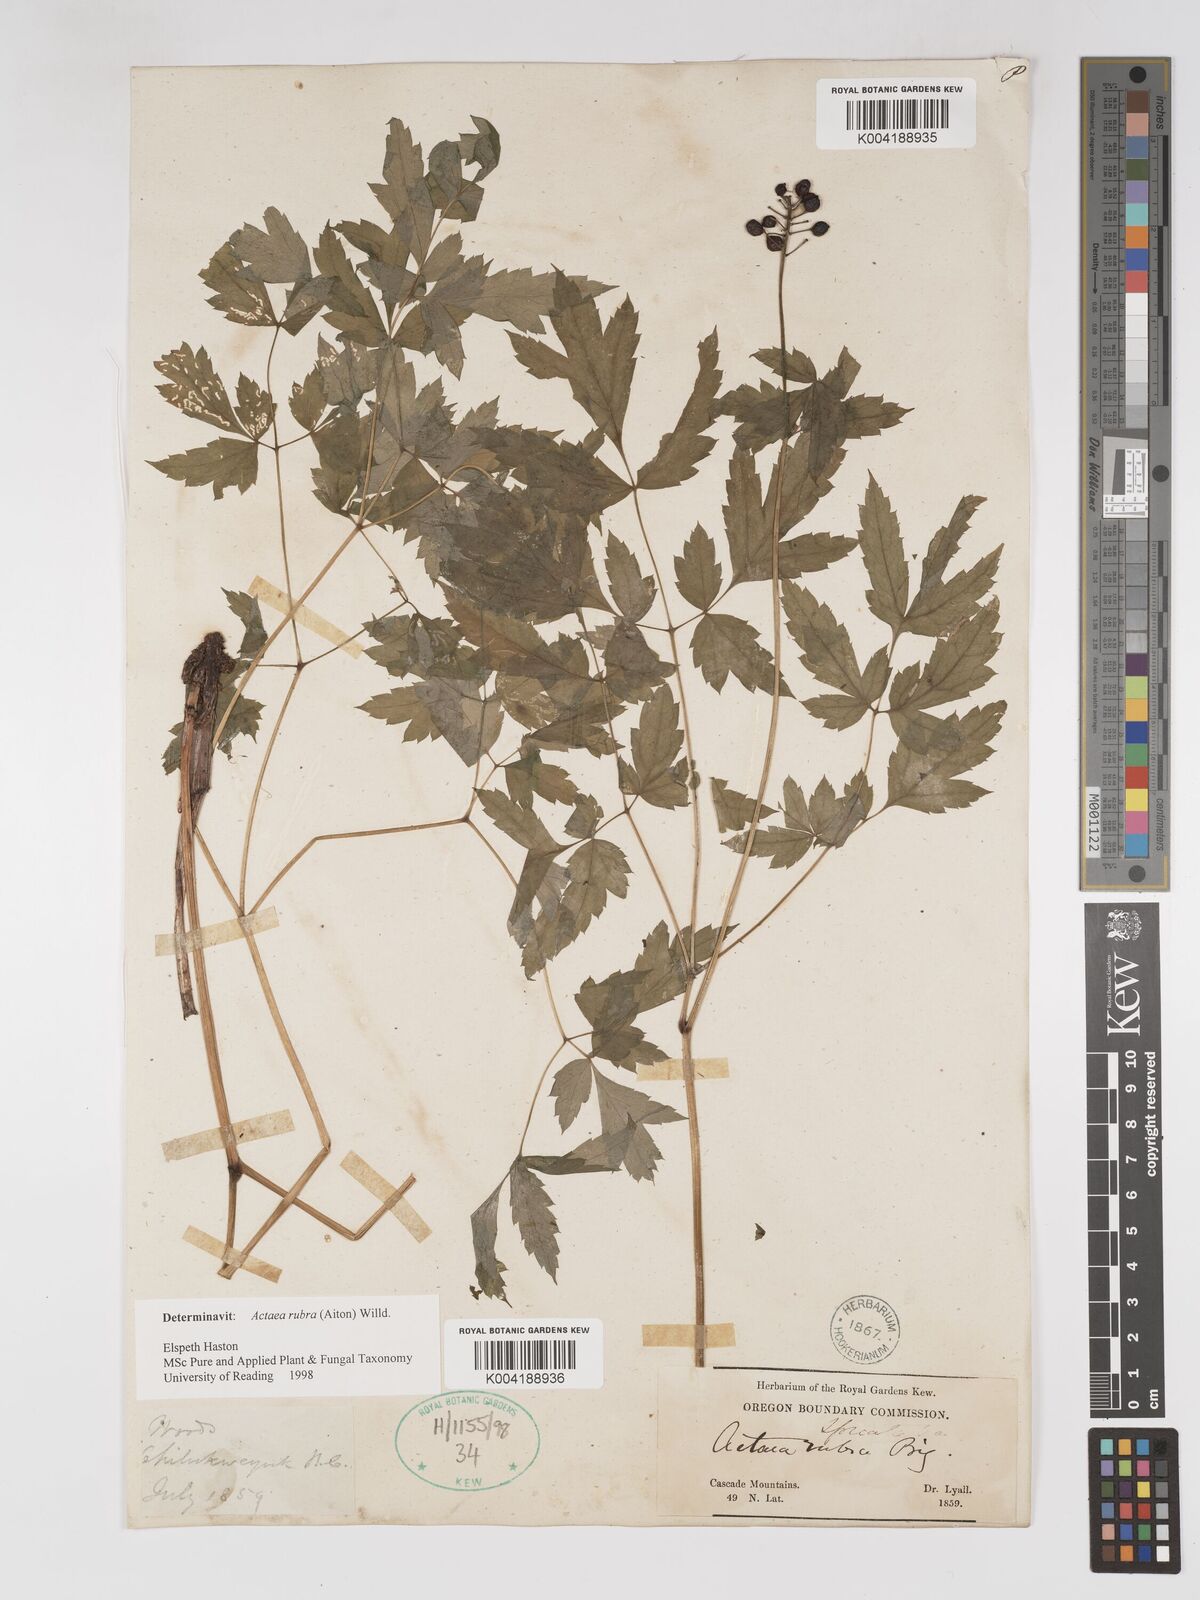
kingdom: Plantae
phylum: Tracheophyta
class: Magnoliopsida
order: Ranunculales
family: Ranunculaceae
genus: Actaea
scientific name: Actaea rubra
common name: Red baneberry
